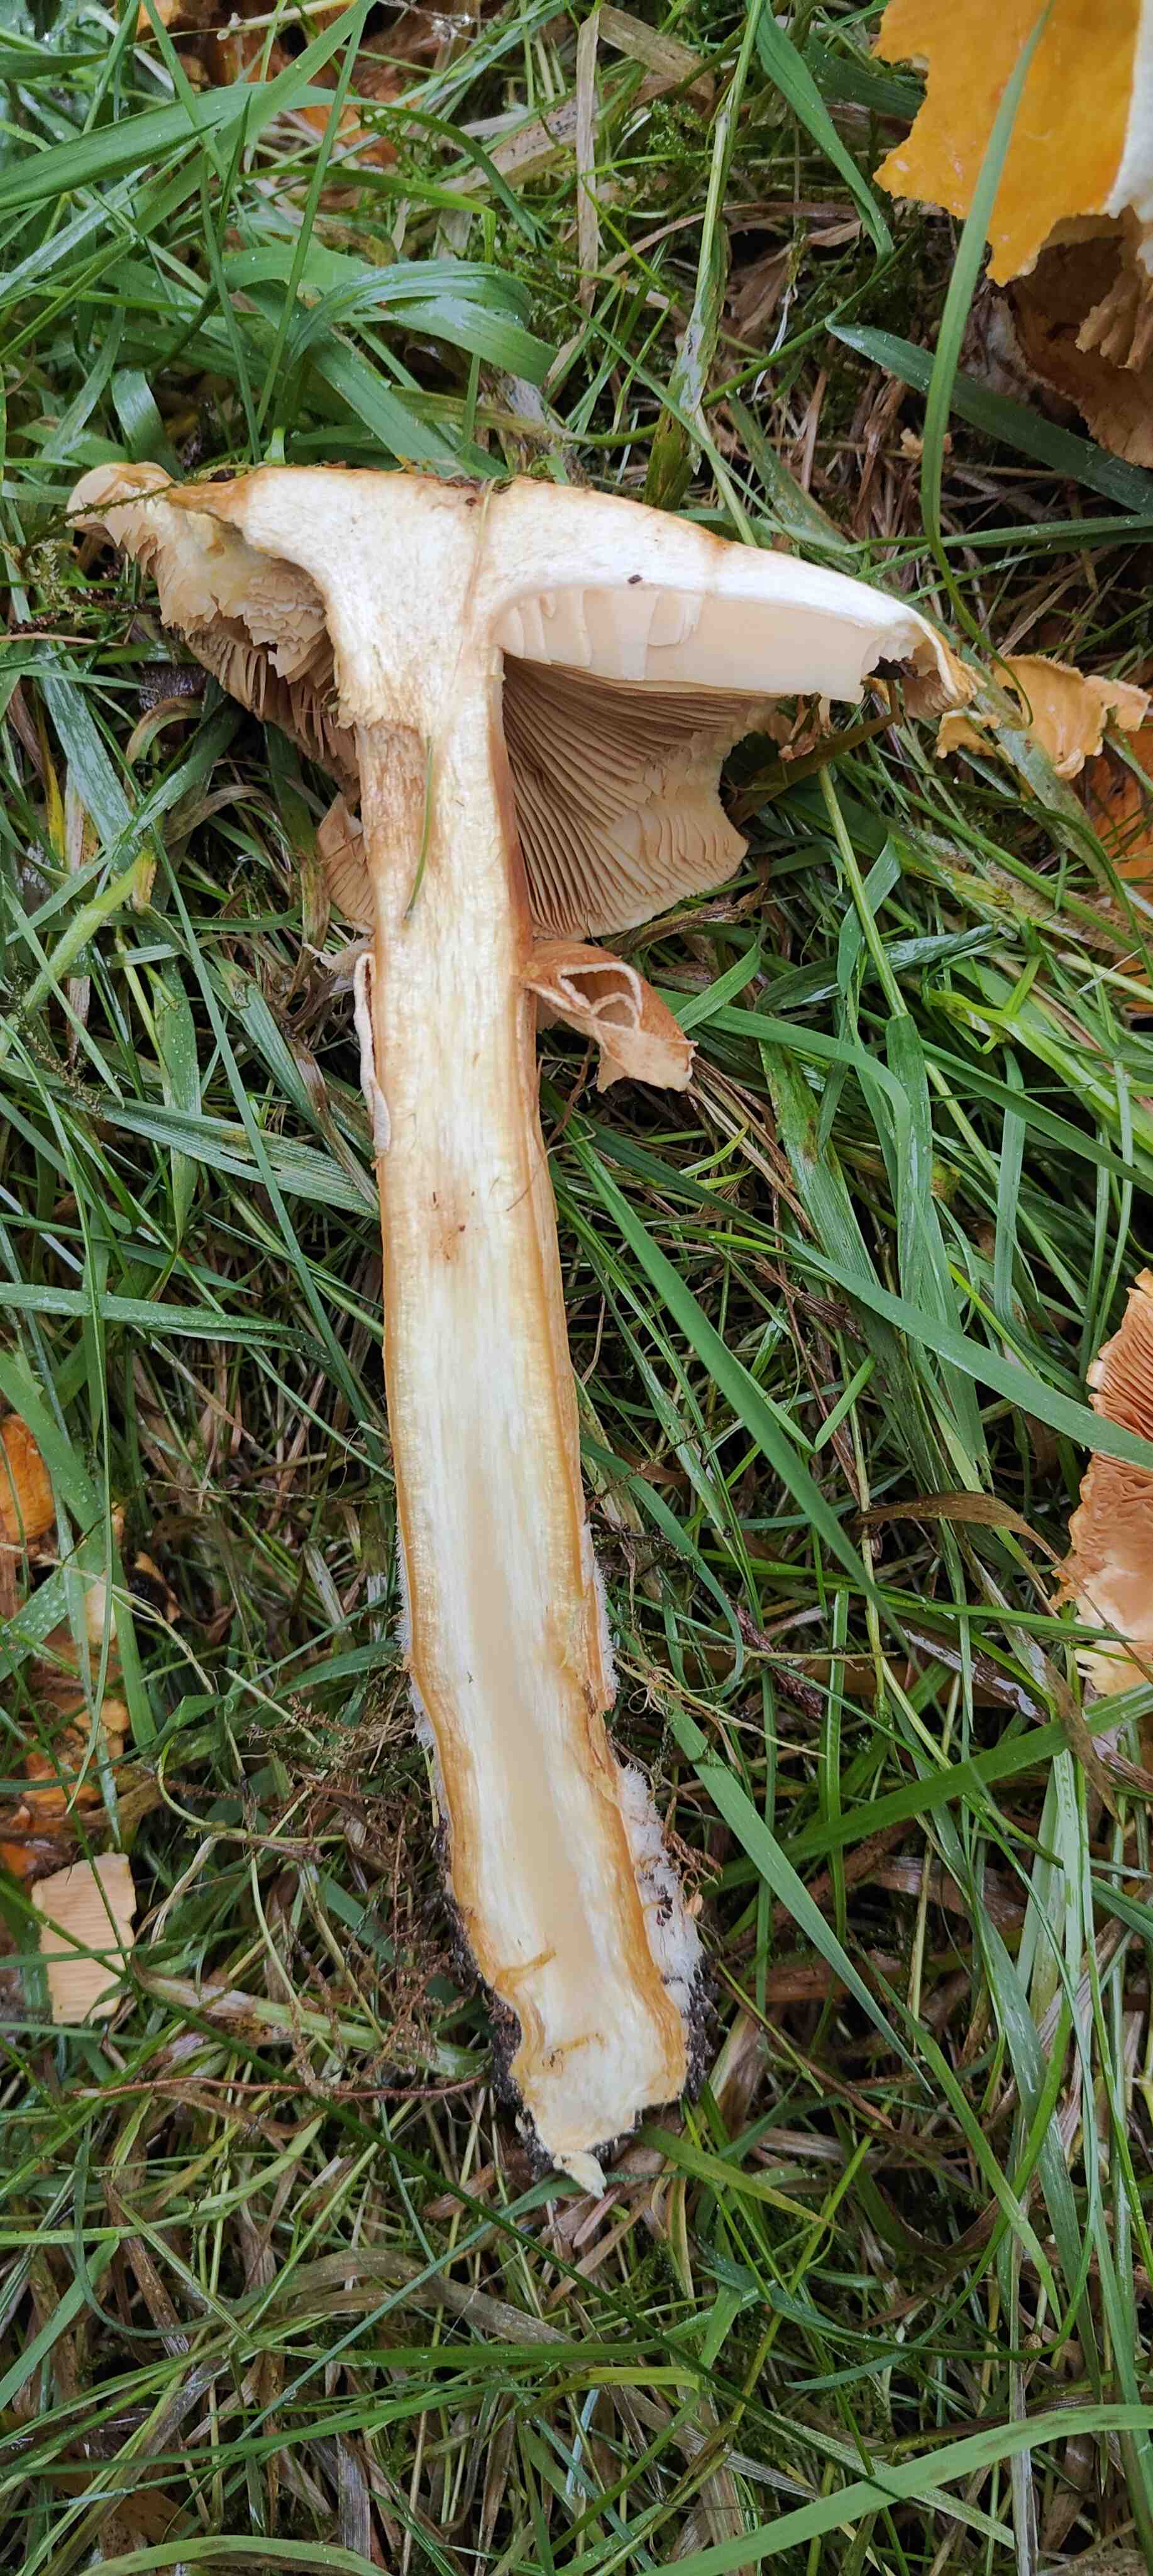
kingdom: Fungi
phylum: Basidiomycota
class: Agaricomycetes
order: Agaricales
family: Tricholomataceae
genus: Phaeolepiota
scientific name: Phaeolepiota aurea
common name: gyldenhat
